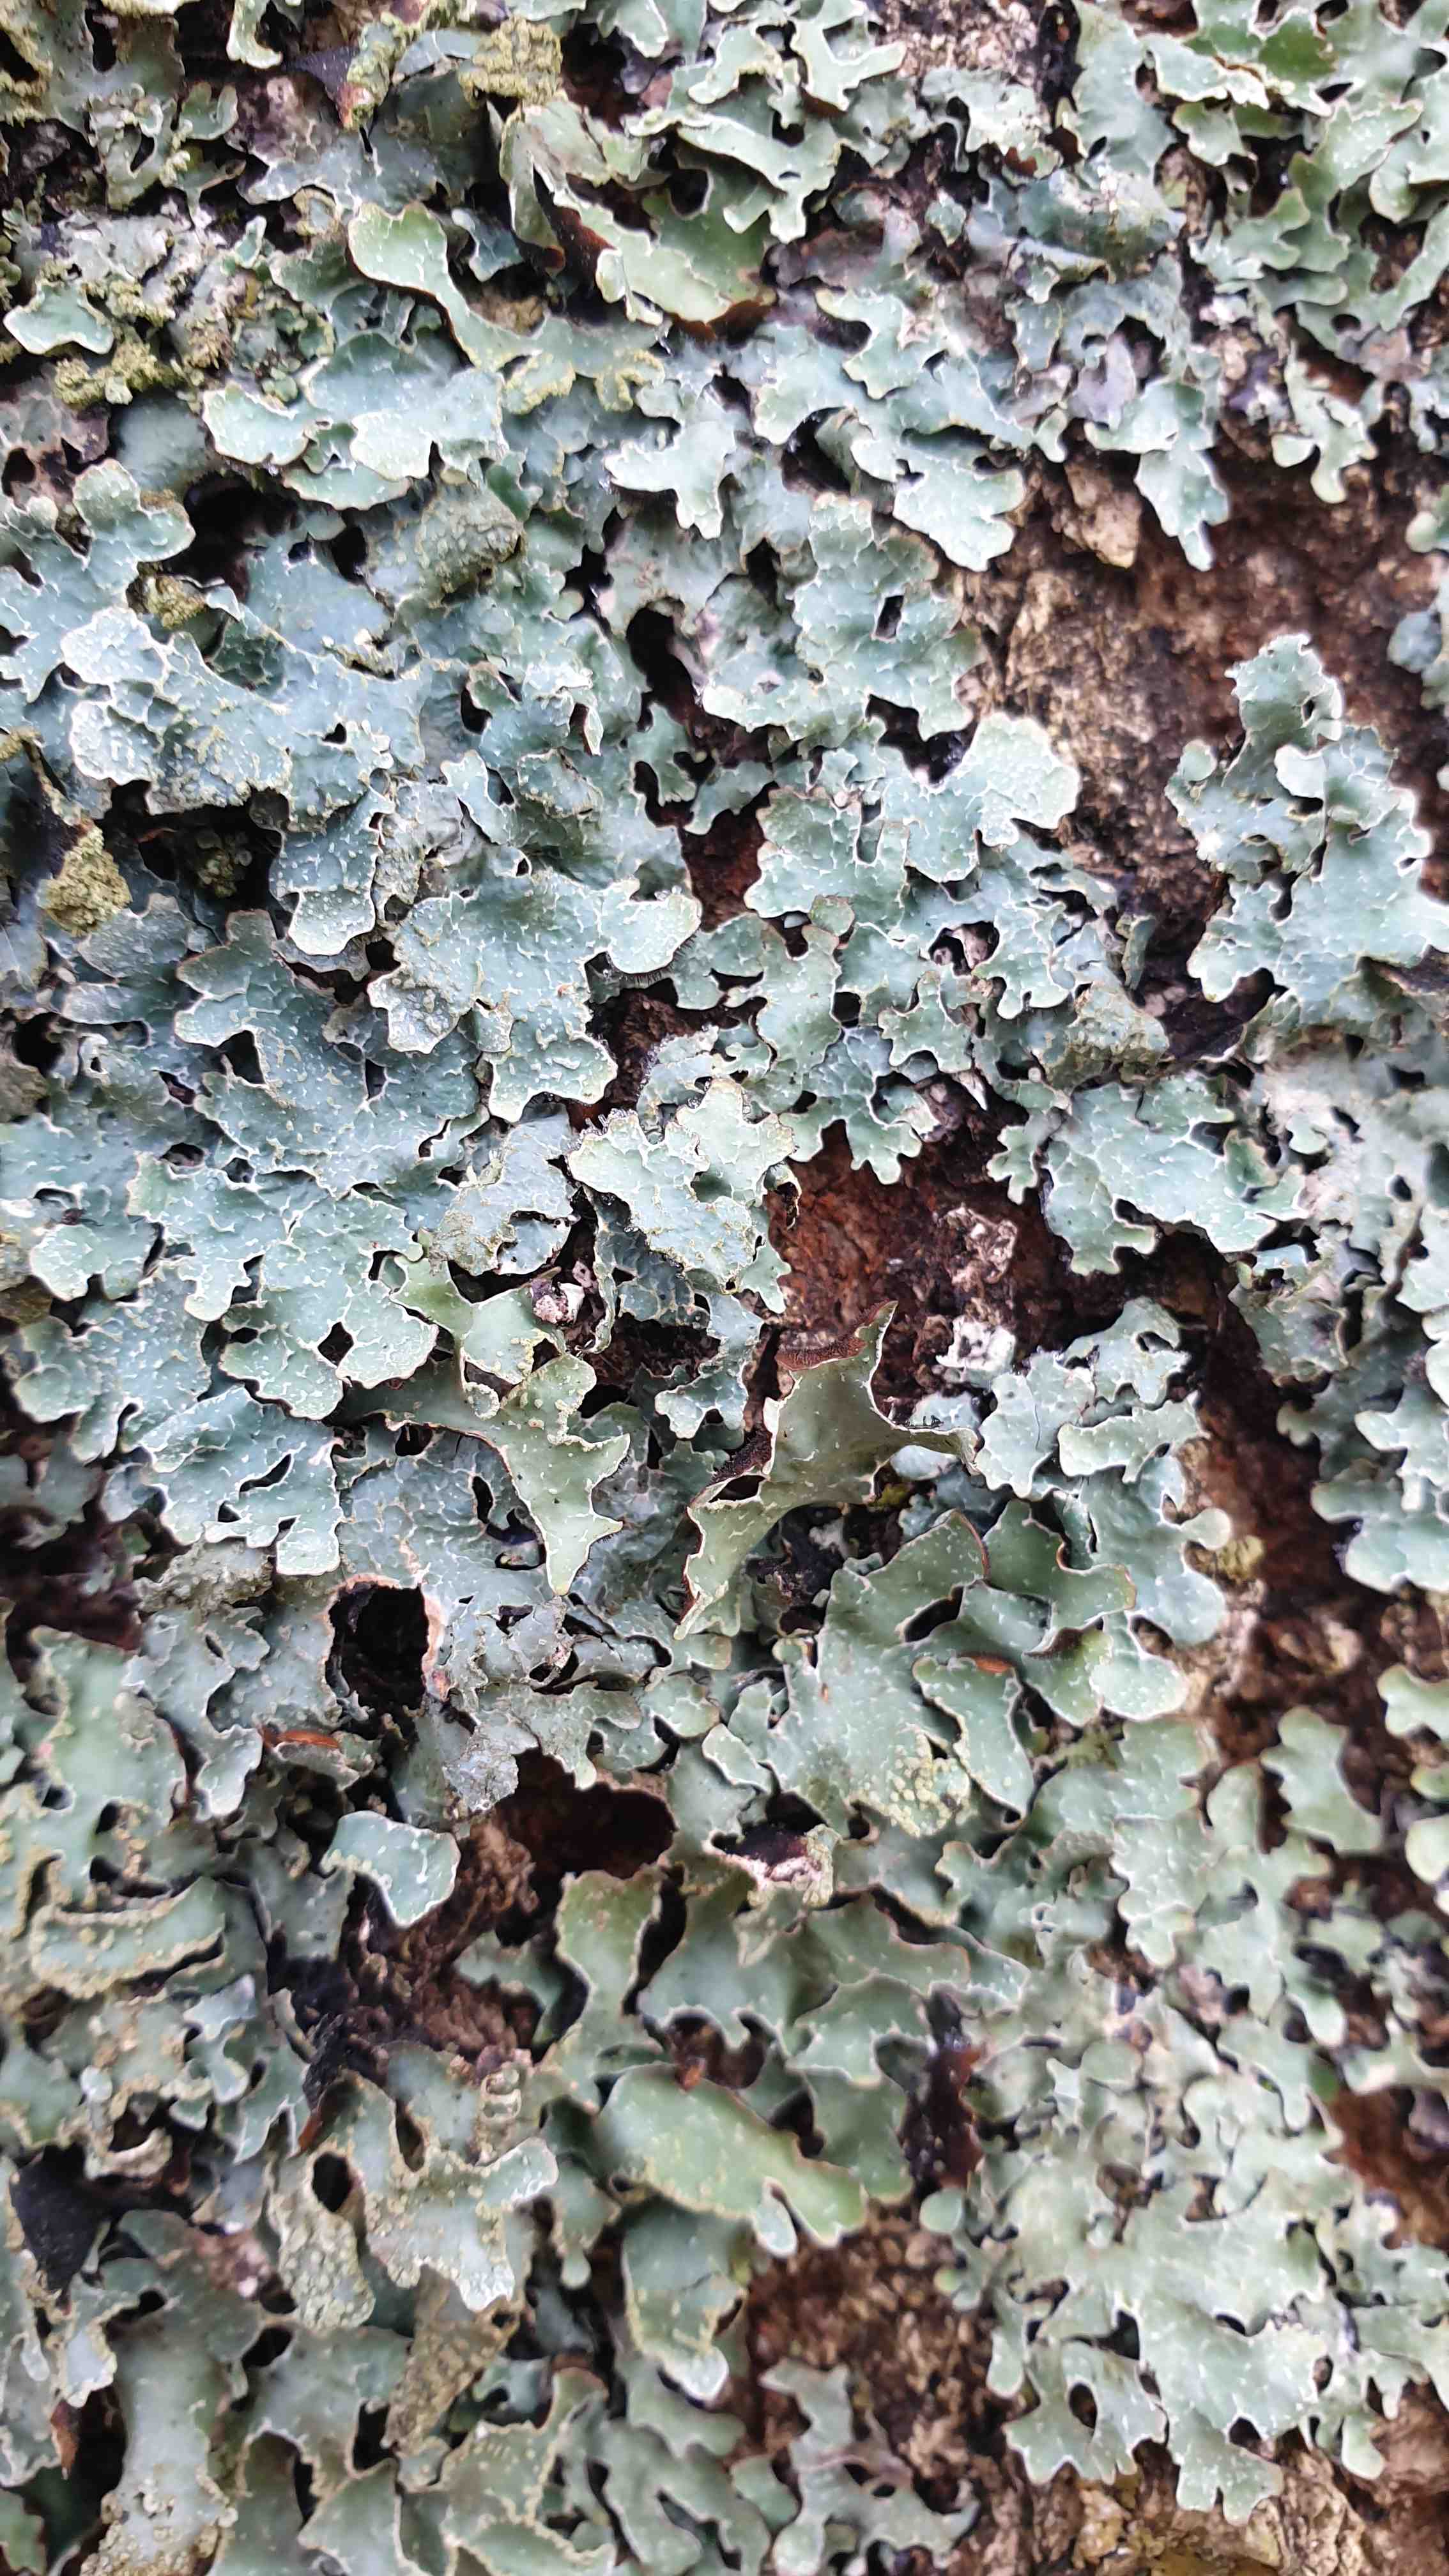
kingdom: Fungi
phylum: Ascomycota
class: Lecanoromycetes
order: Lecanorales
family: Parmeliaceae
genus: Parmelia
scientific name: Parmelia sulcata
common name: rynket skållav
